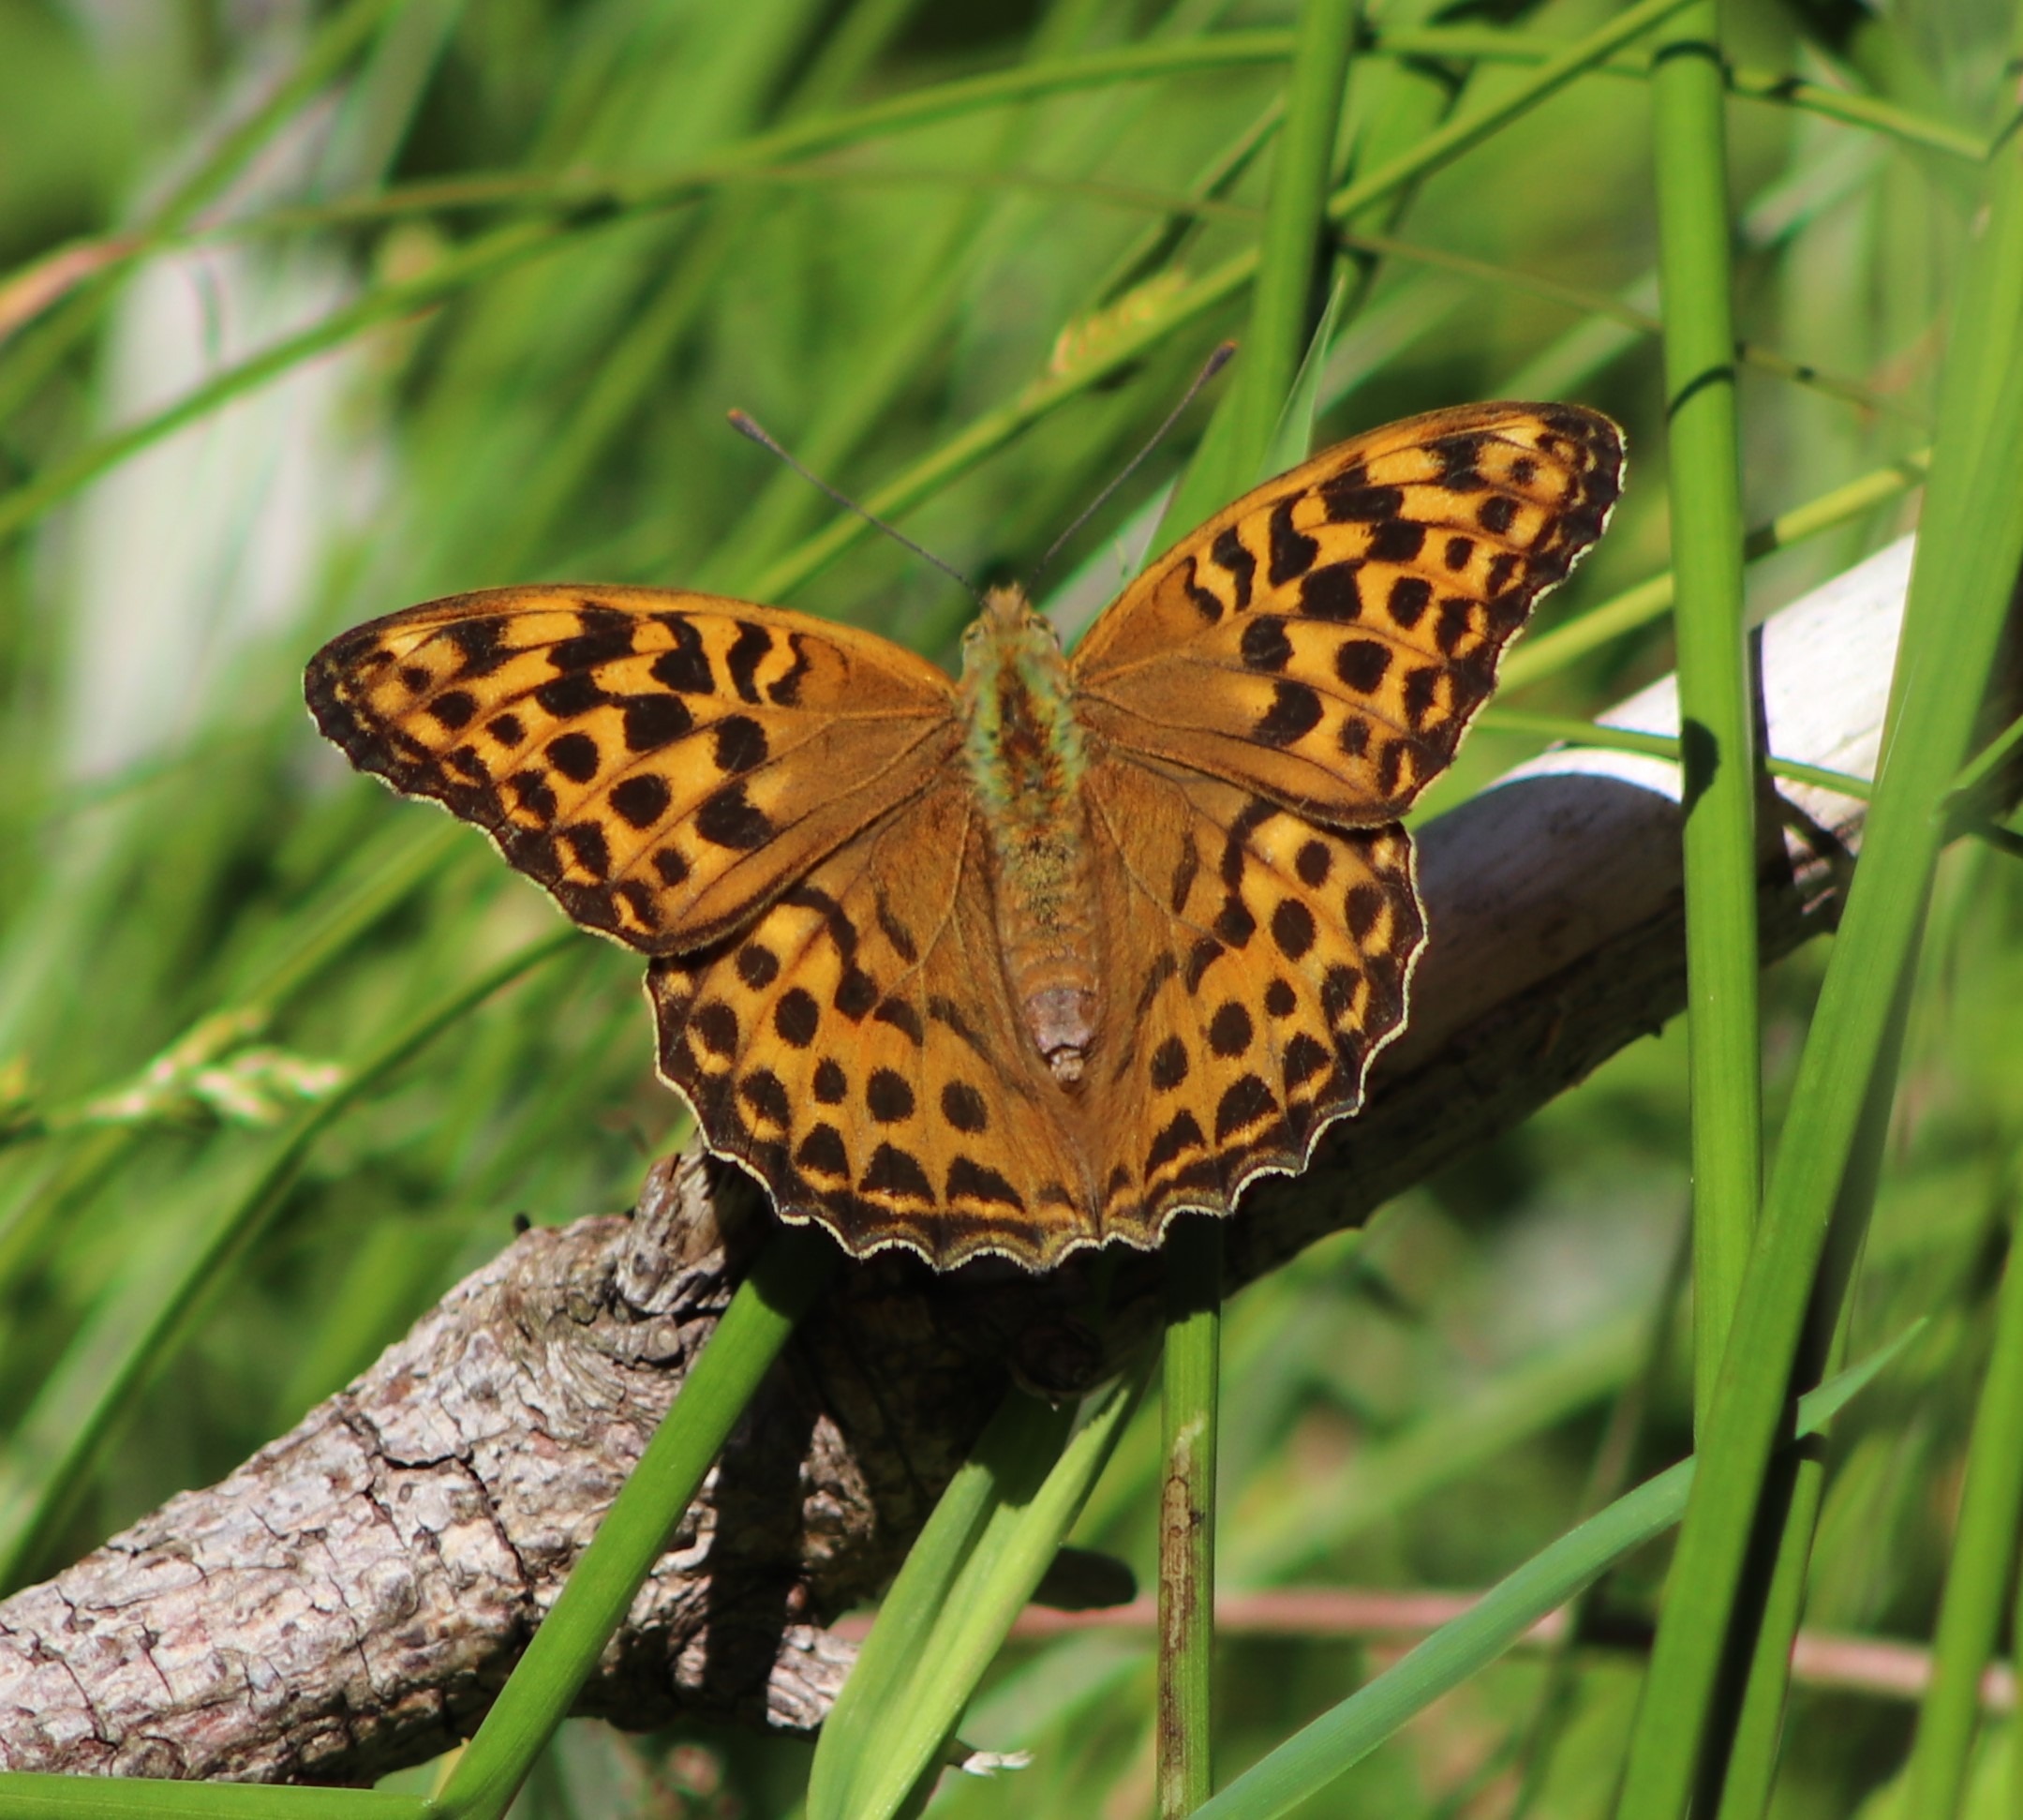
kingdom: Animalia
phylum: Arthropoda
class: Insecta
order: Lepidoptera
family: Nymphalidae
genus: Argynnis
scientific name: Argynnis paphia
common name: Kejserkåbe
